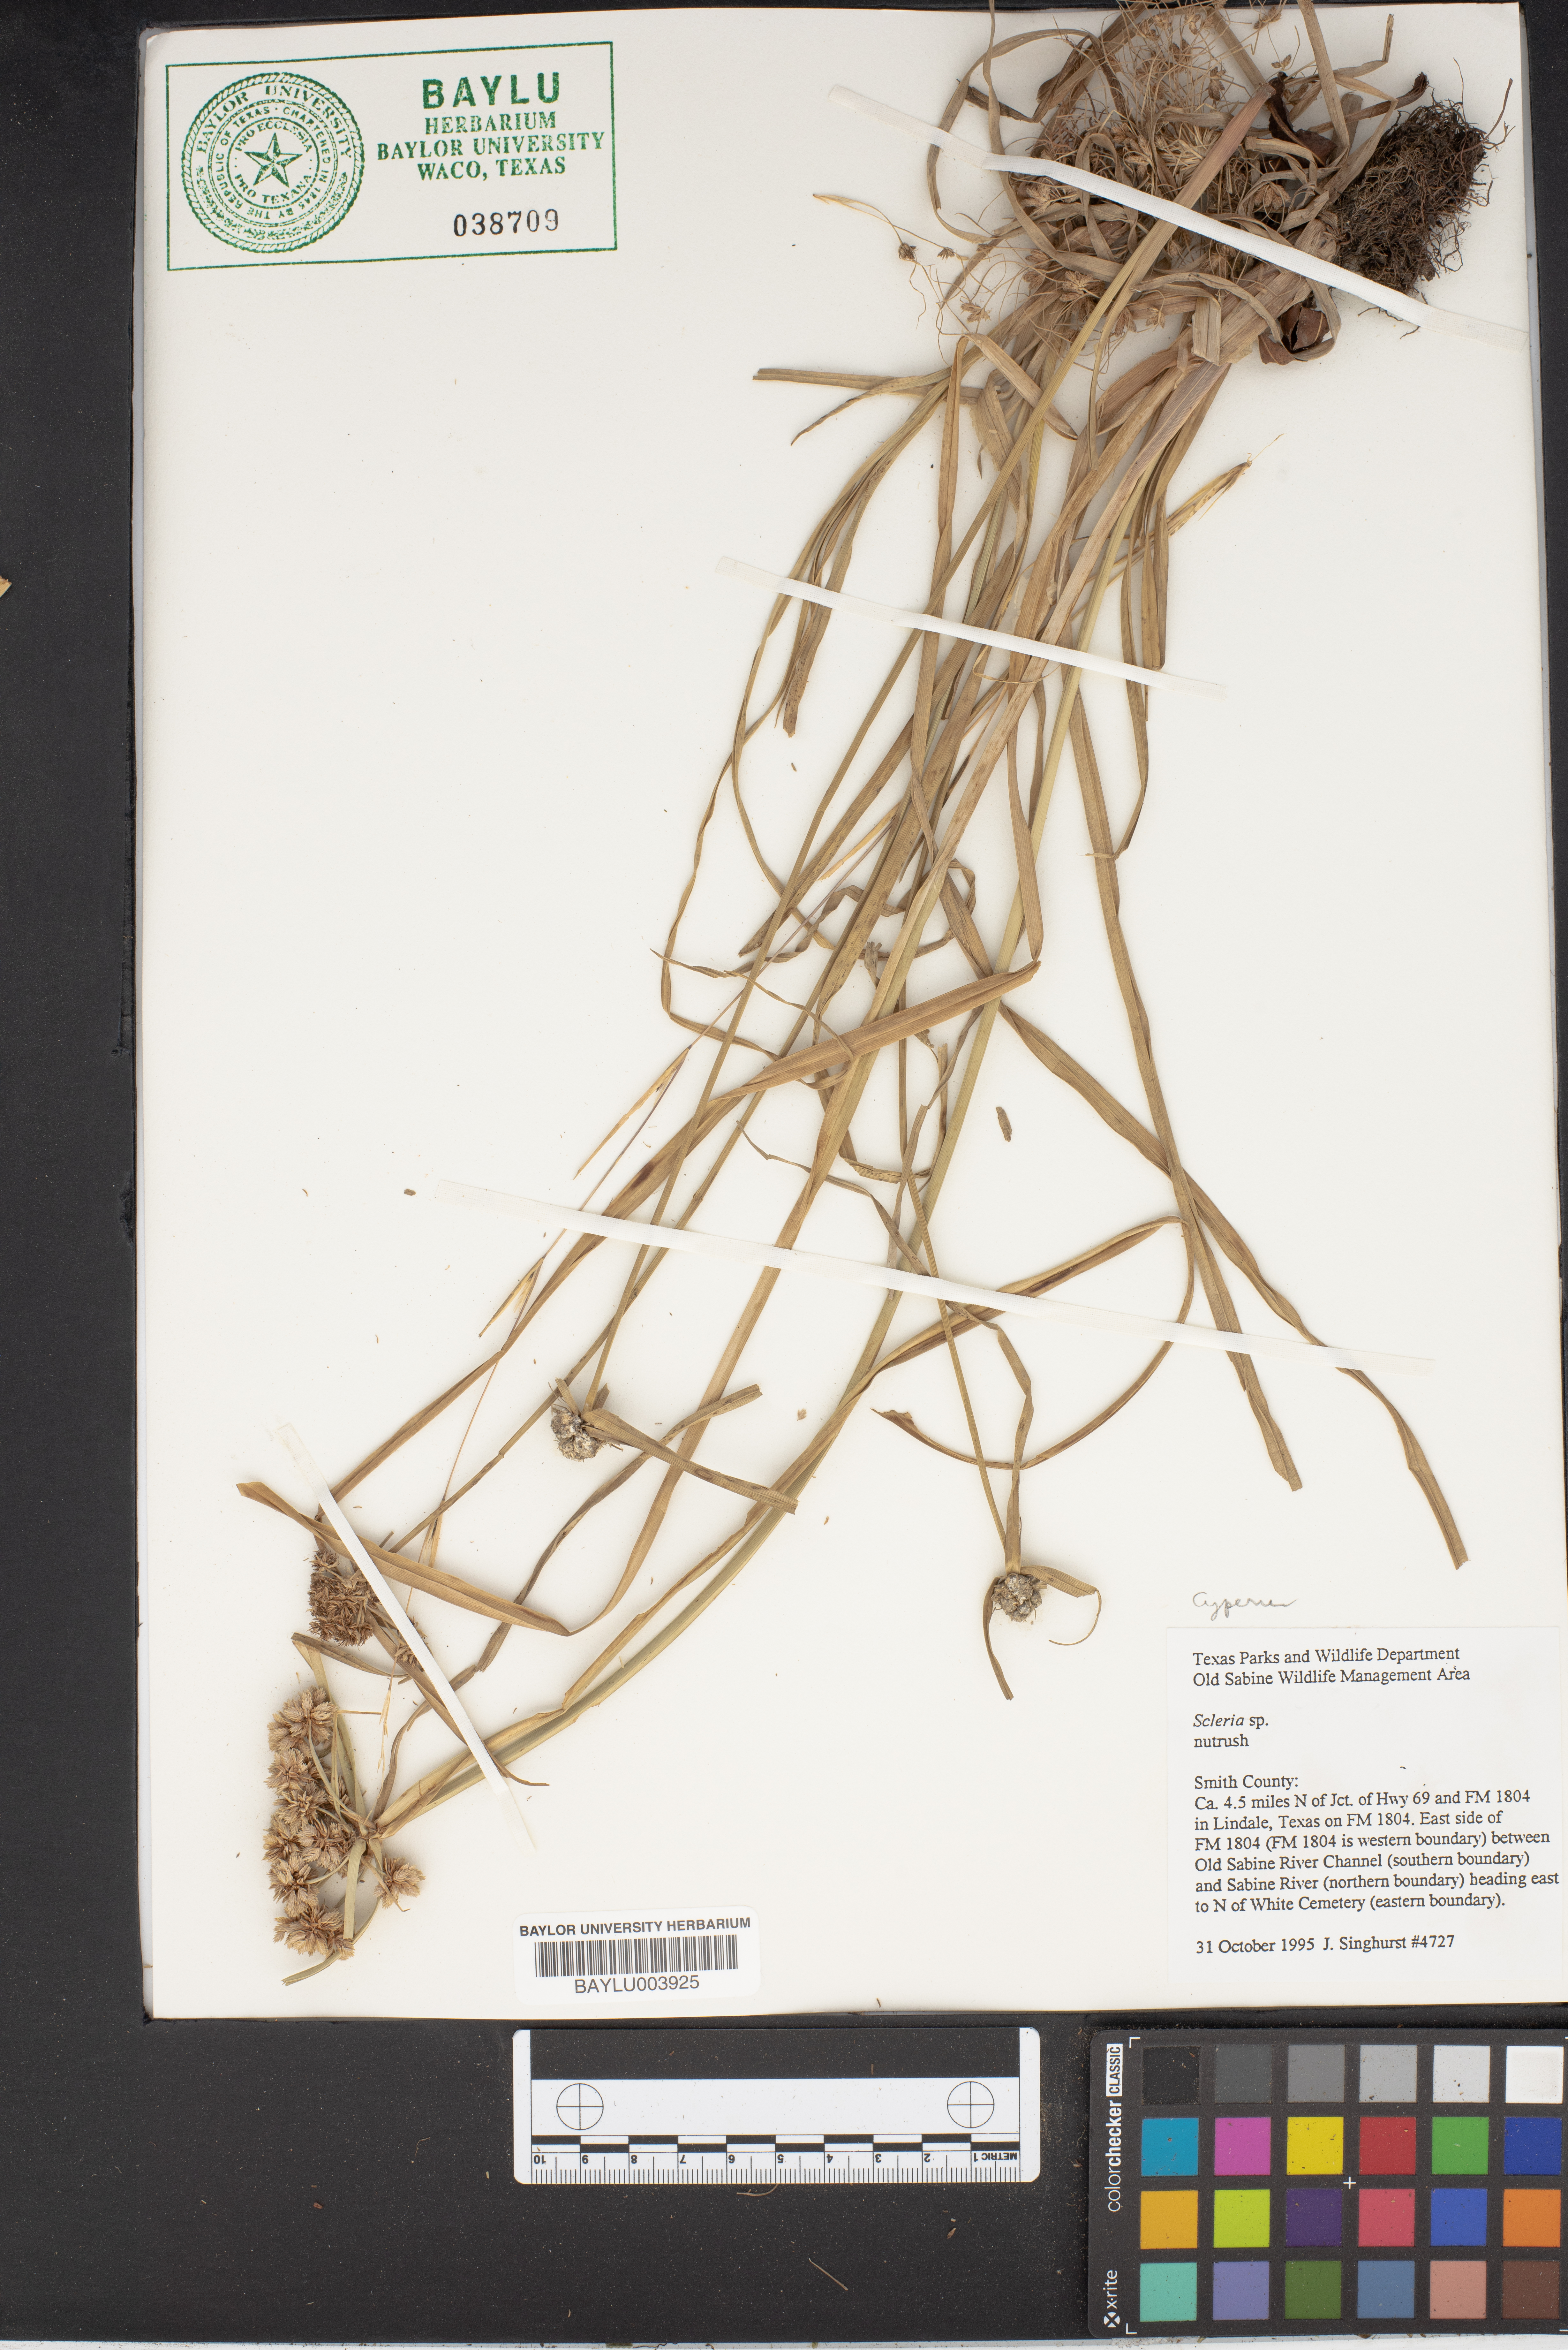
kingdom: Plantae
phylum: Tracheophyta
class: Liliopsida
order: Poales
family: Cyperaceae
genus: Scleria
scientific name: Scleria
